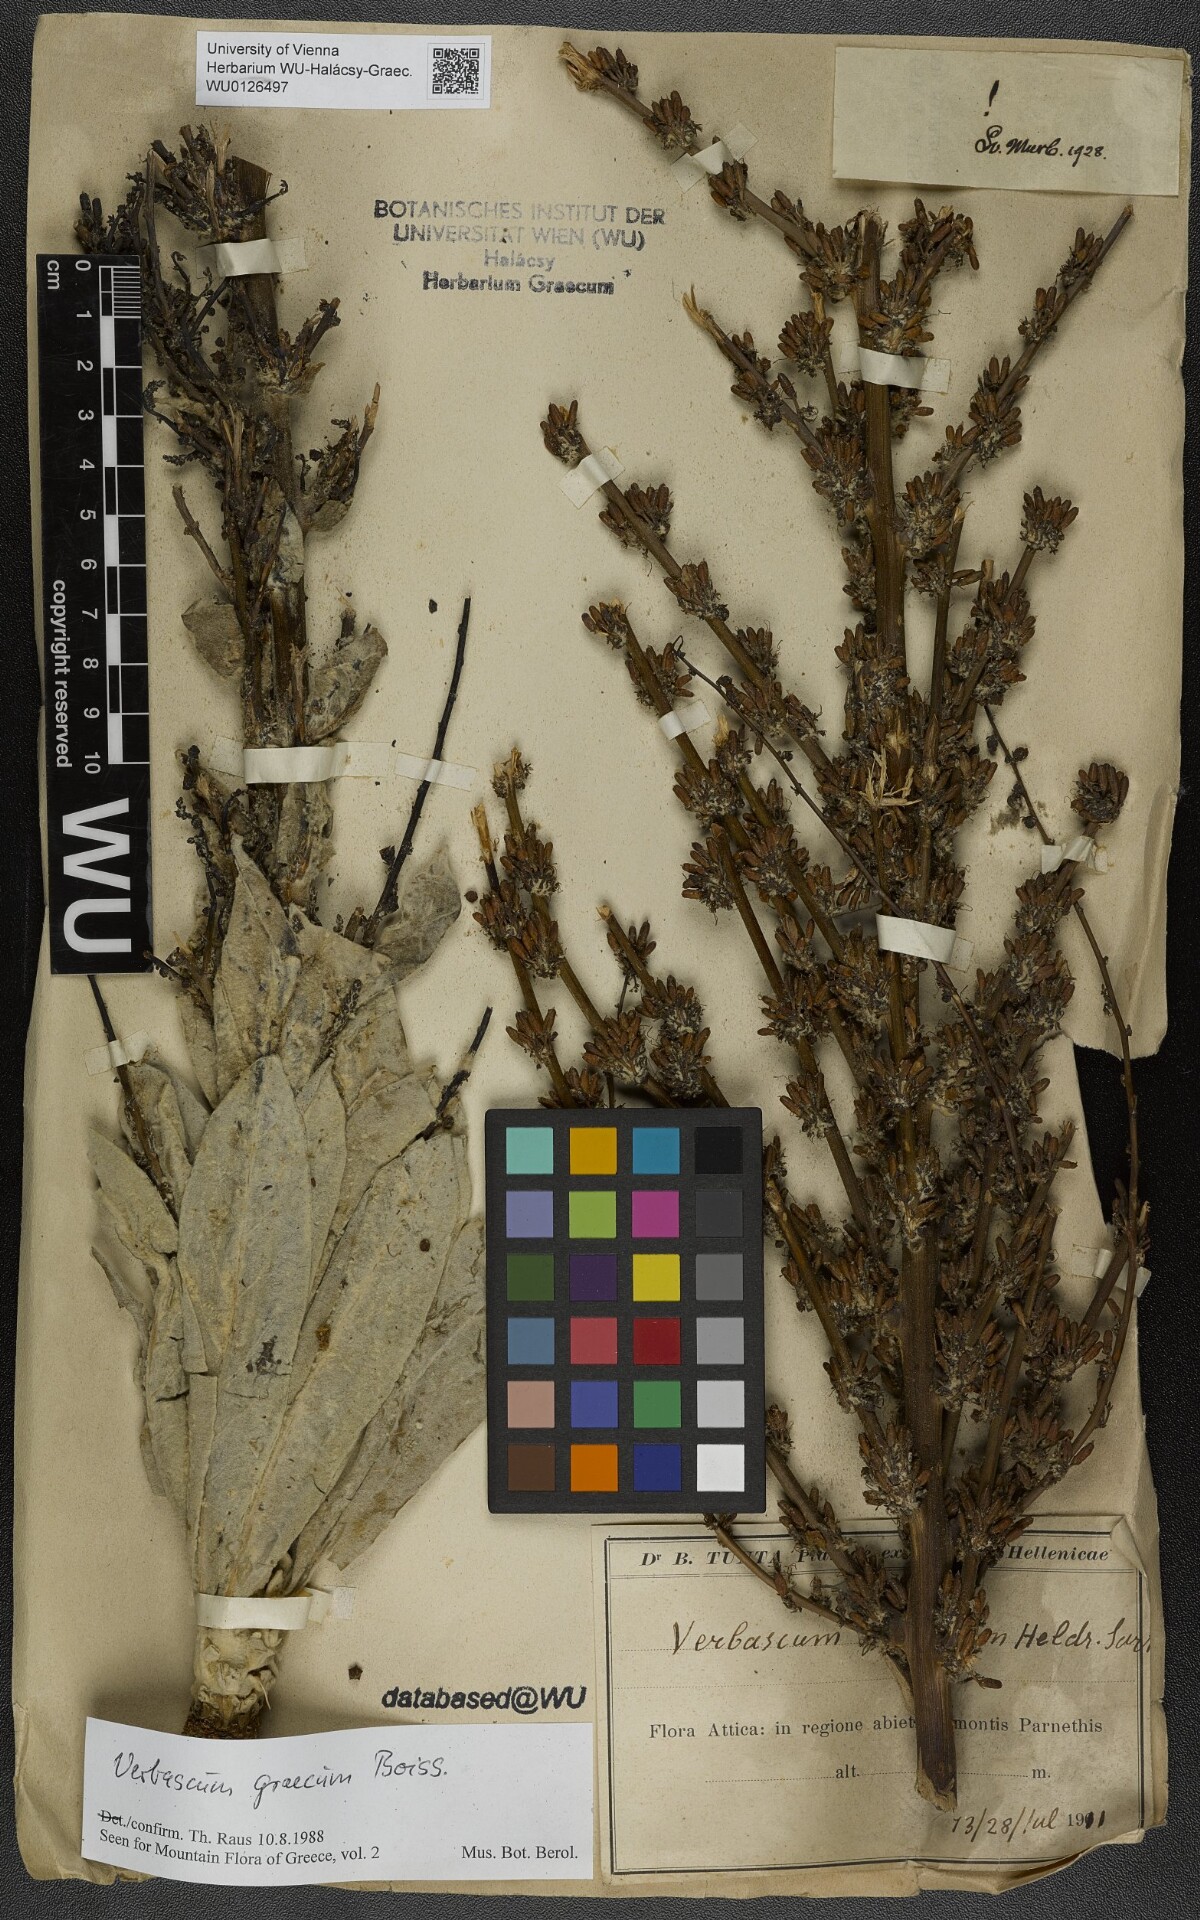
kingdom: Plantae
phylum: Tracheophyta
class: Magnoliopsida
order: Lamiales
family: Scrophulariaceae
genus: Verbascum
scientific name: Verbascum graecum
